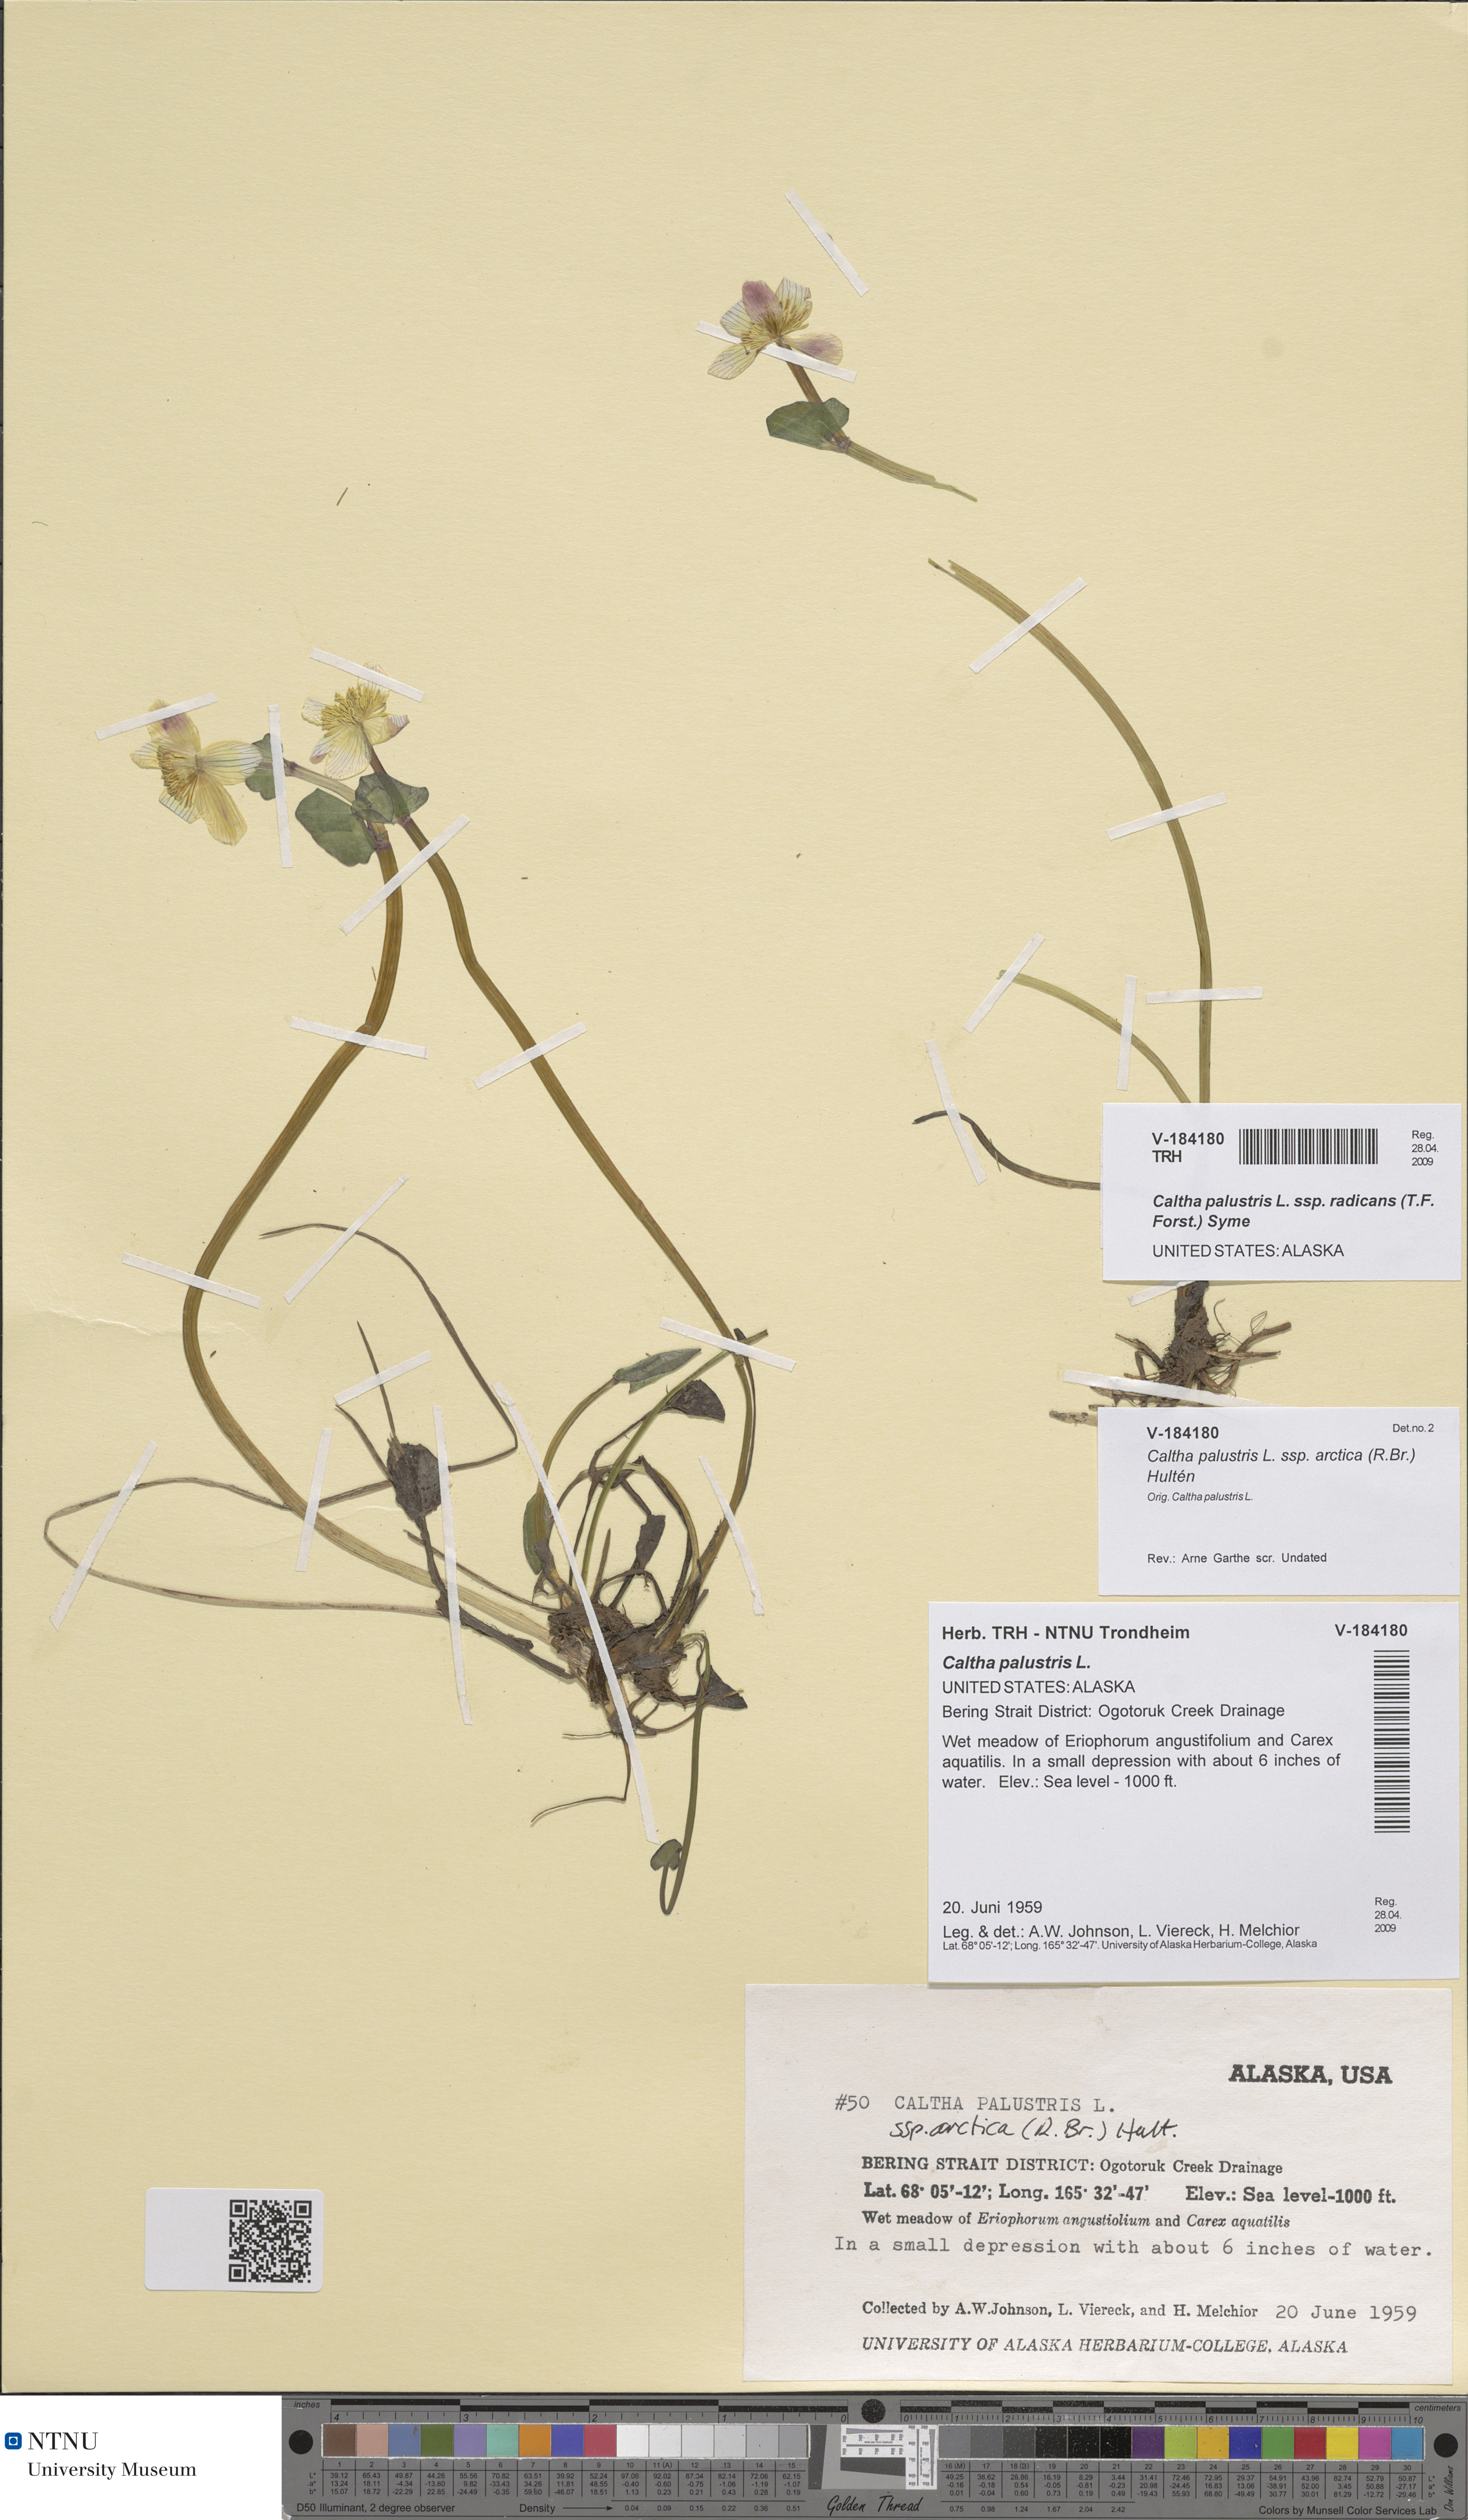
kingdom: Plantae
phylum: Tracheophyta
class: Magnoliopsida
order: Ranunculales
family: Ranunculaceae
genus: Caltha
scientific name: Caltha palustris
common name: Marsh marigold
